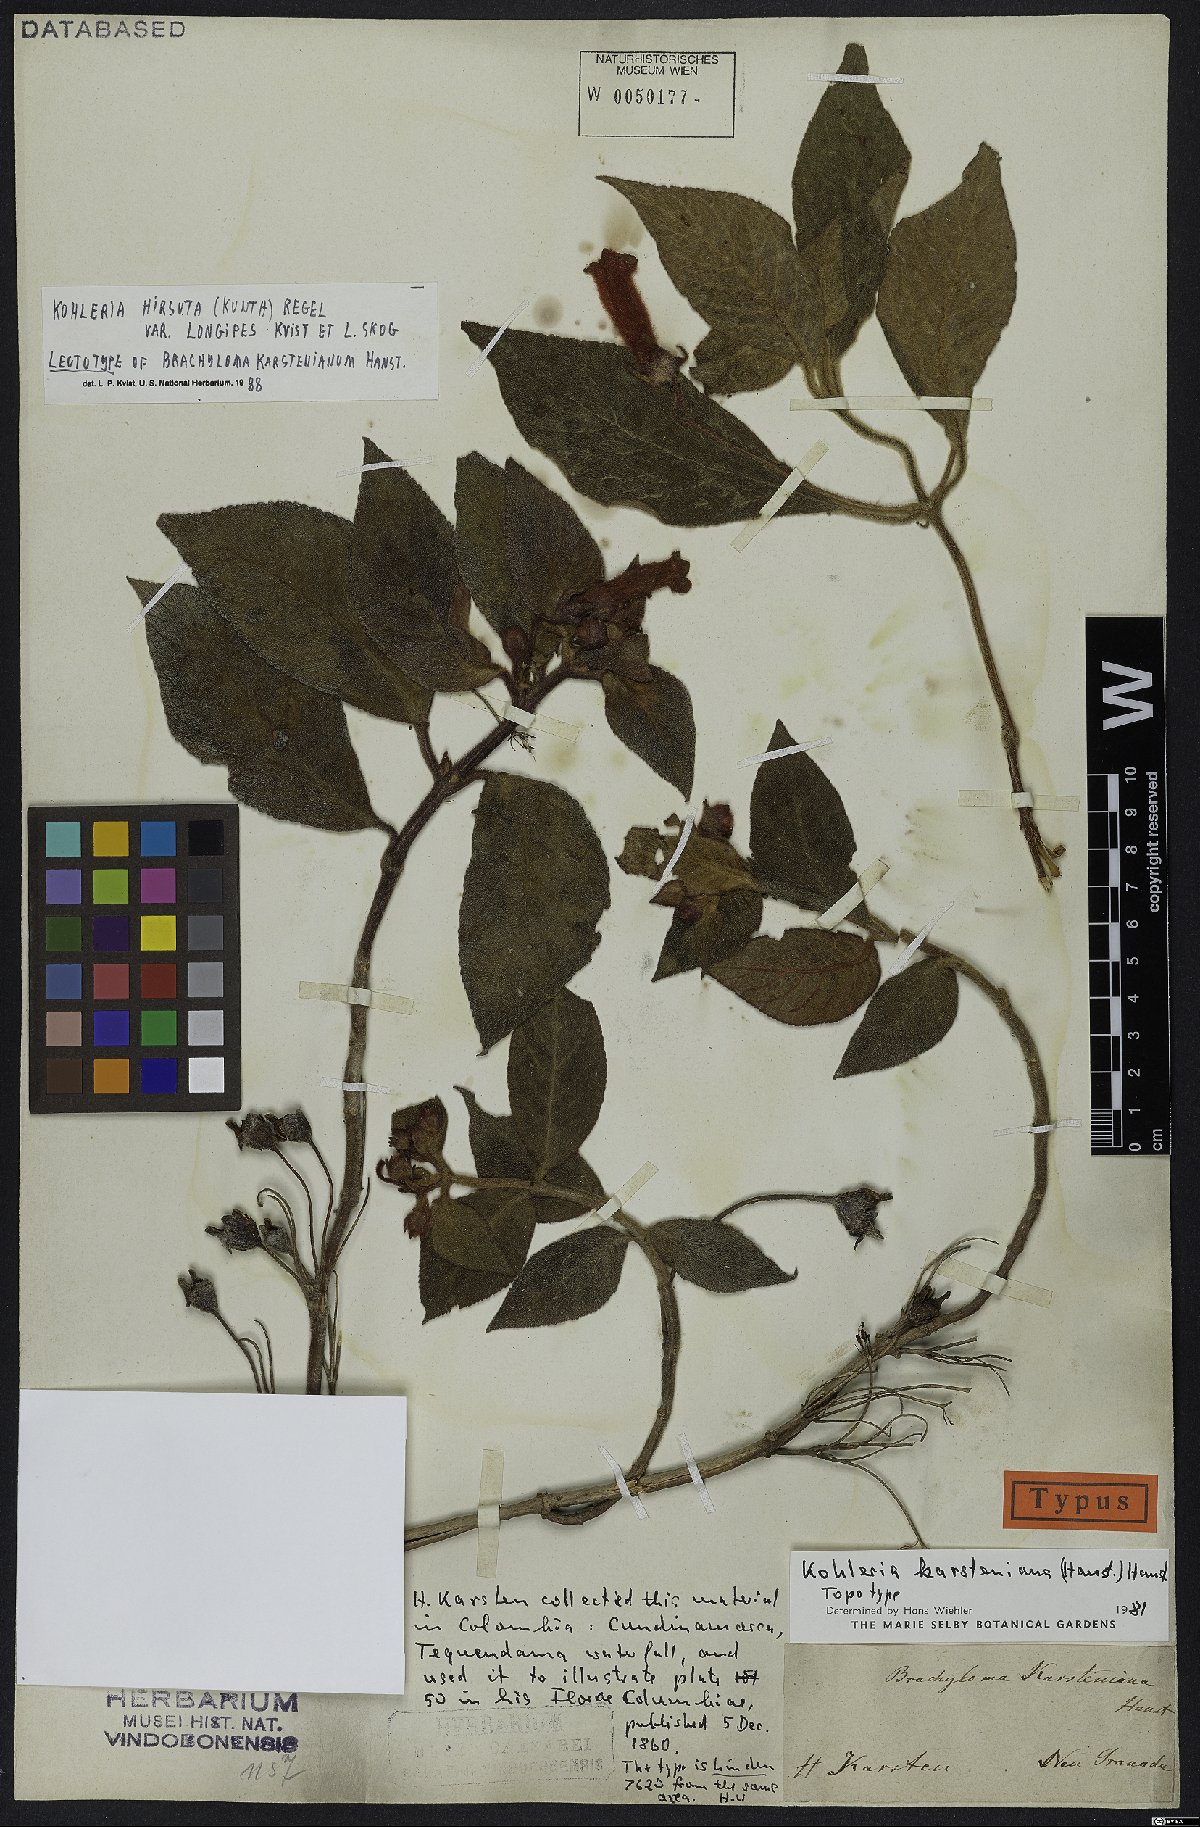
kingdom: Plantae
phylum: Tracheophyta
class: Magnoliopsida
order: Lamiales
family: Gesneriaceae
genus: Kohleria
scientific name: Kohleria hirsuta
